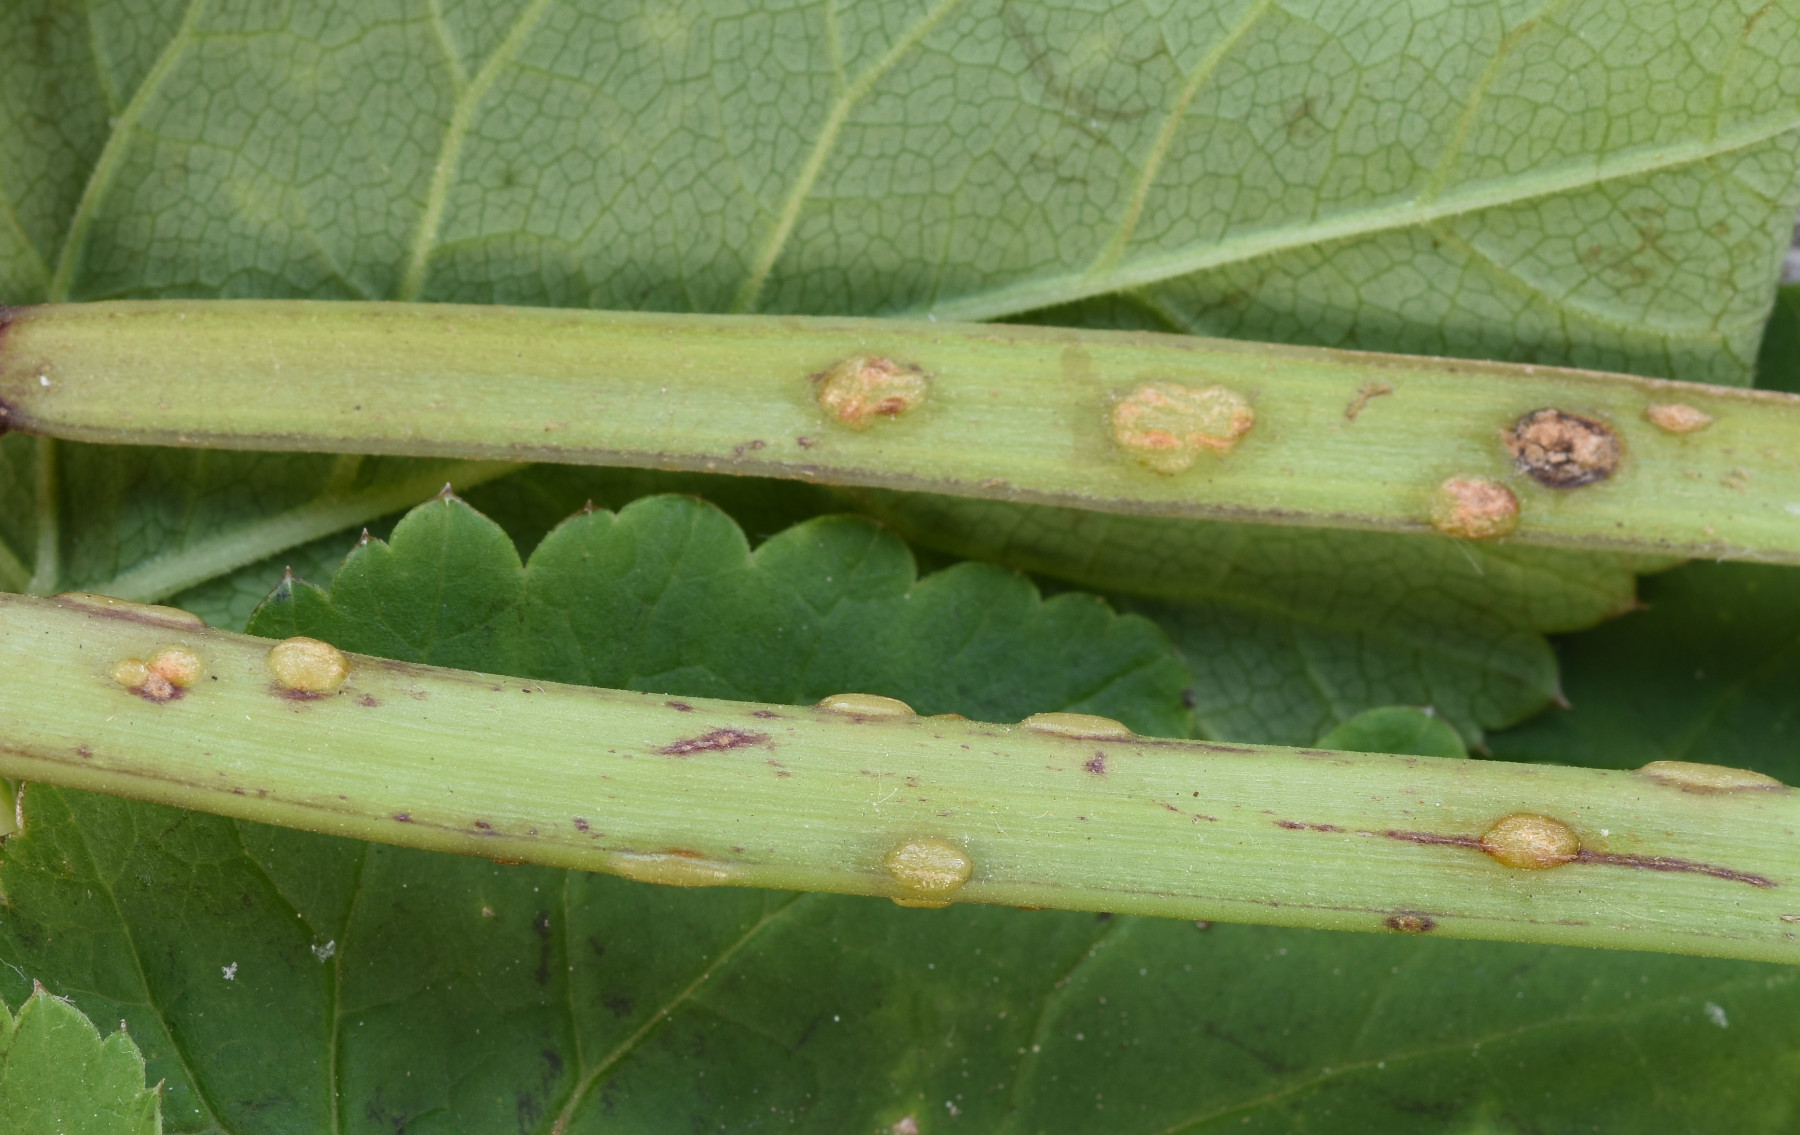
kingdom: Fungi
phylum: Ascomycota
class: Taphrinomycetes
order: Taphrinales
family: Taphrinaceae
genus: Protomyces
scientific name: Protomyces macrosporus
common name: skvalderkål-vablesæk
